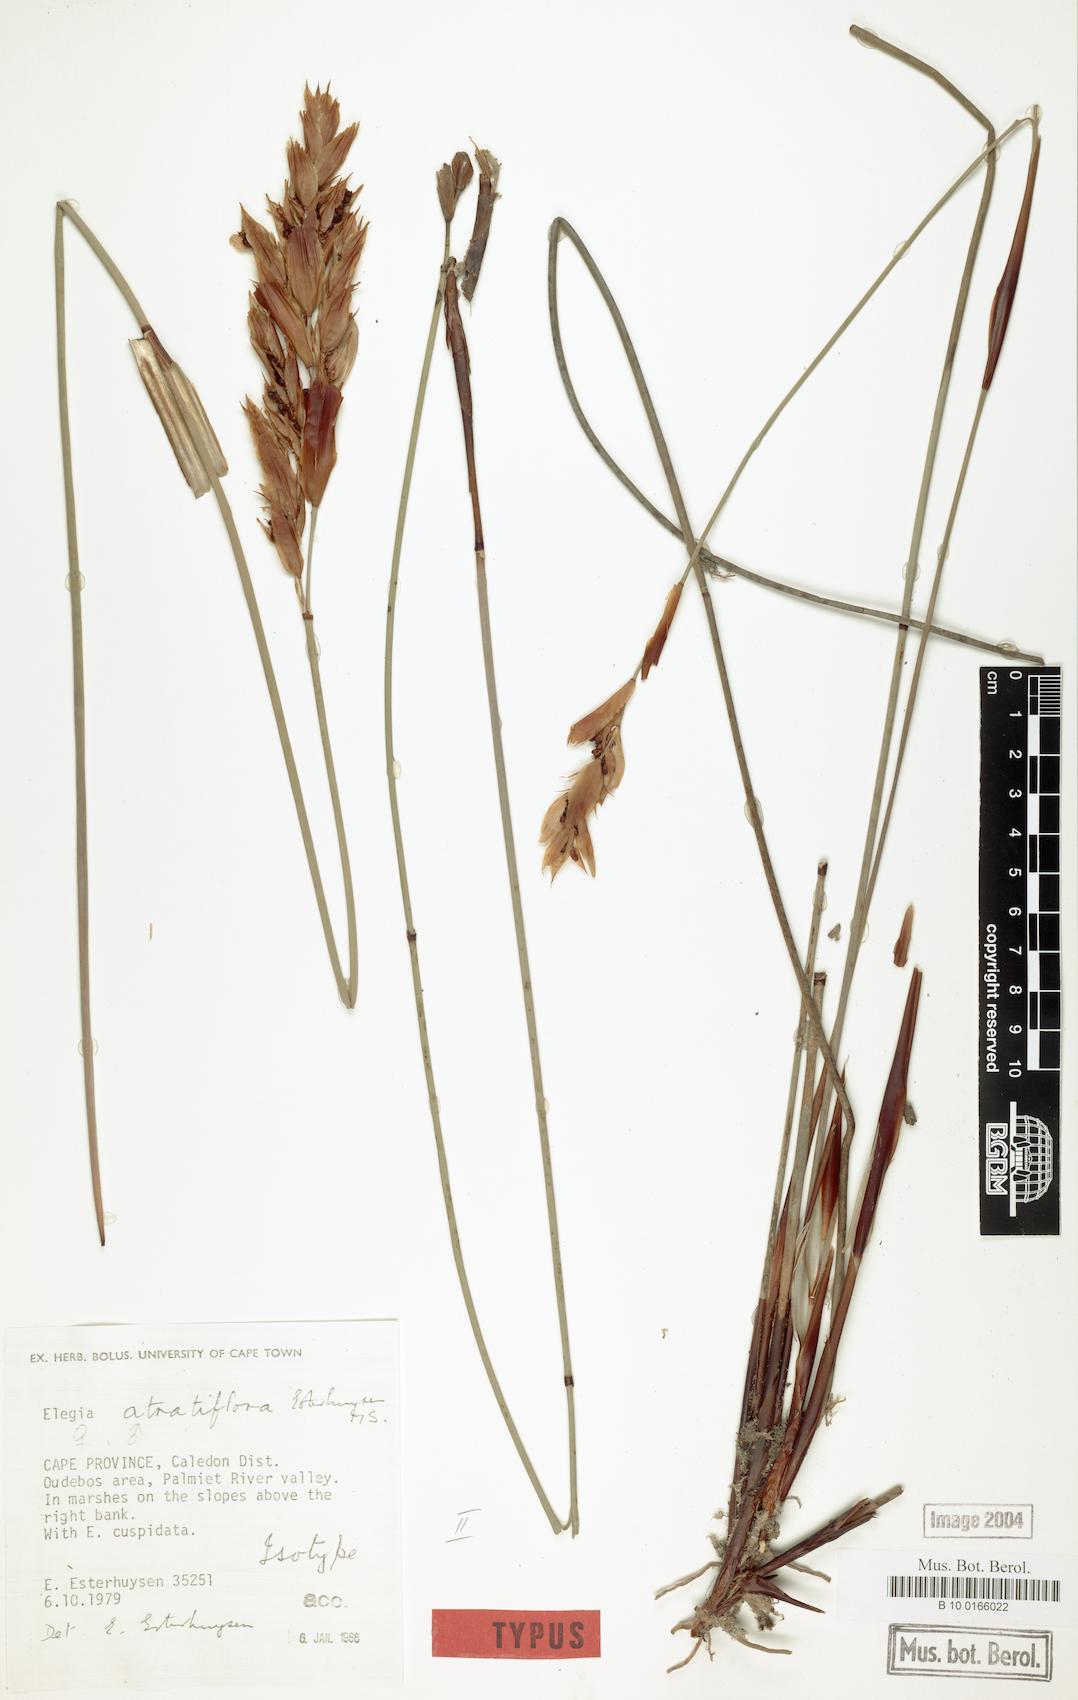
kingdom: Plantae
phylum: Tracheophyta
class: Liliopsida
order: Poales
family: Restionaceae
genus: Elegia
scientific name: Elegia atratiflora
